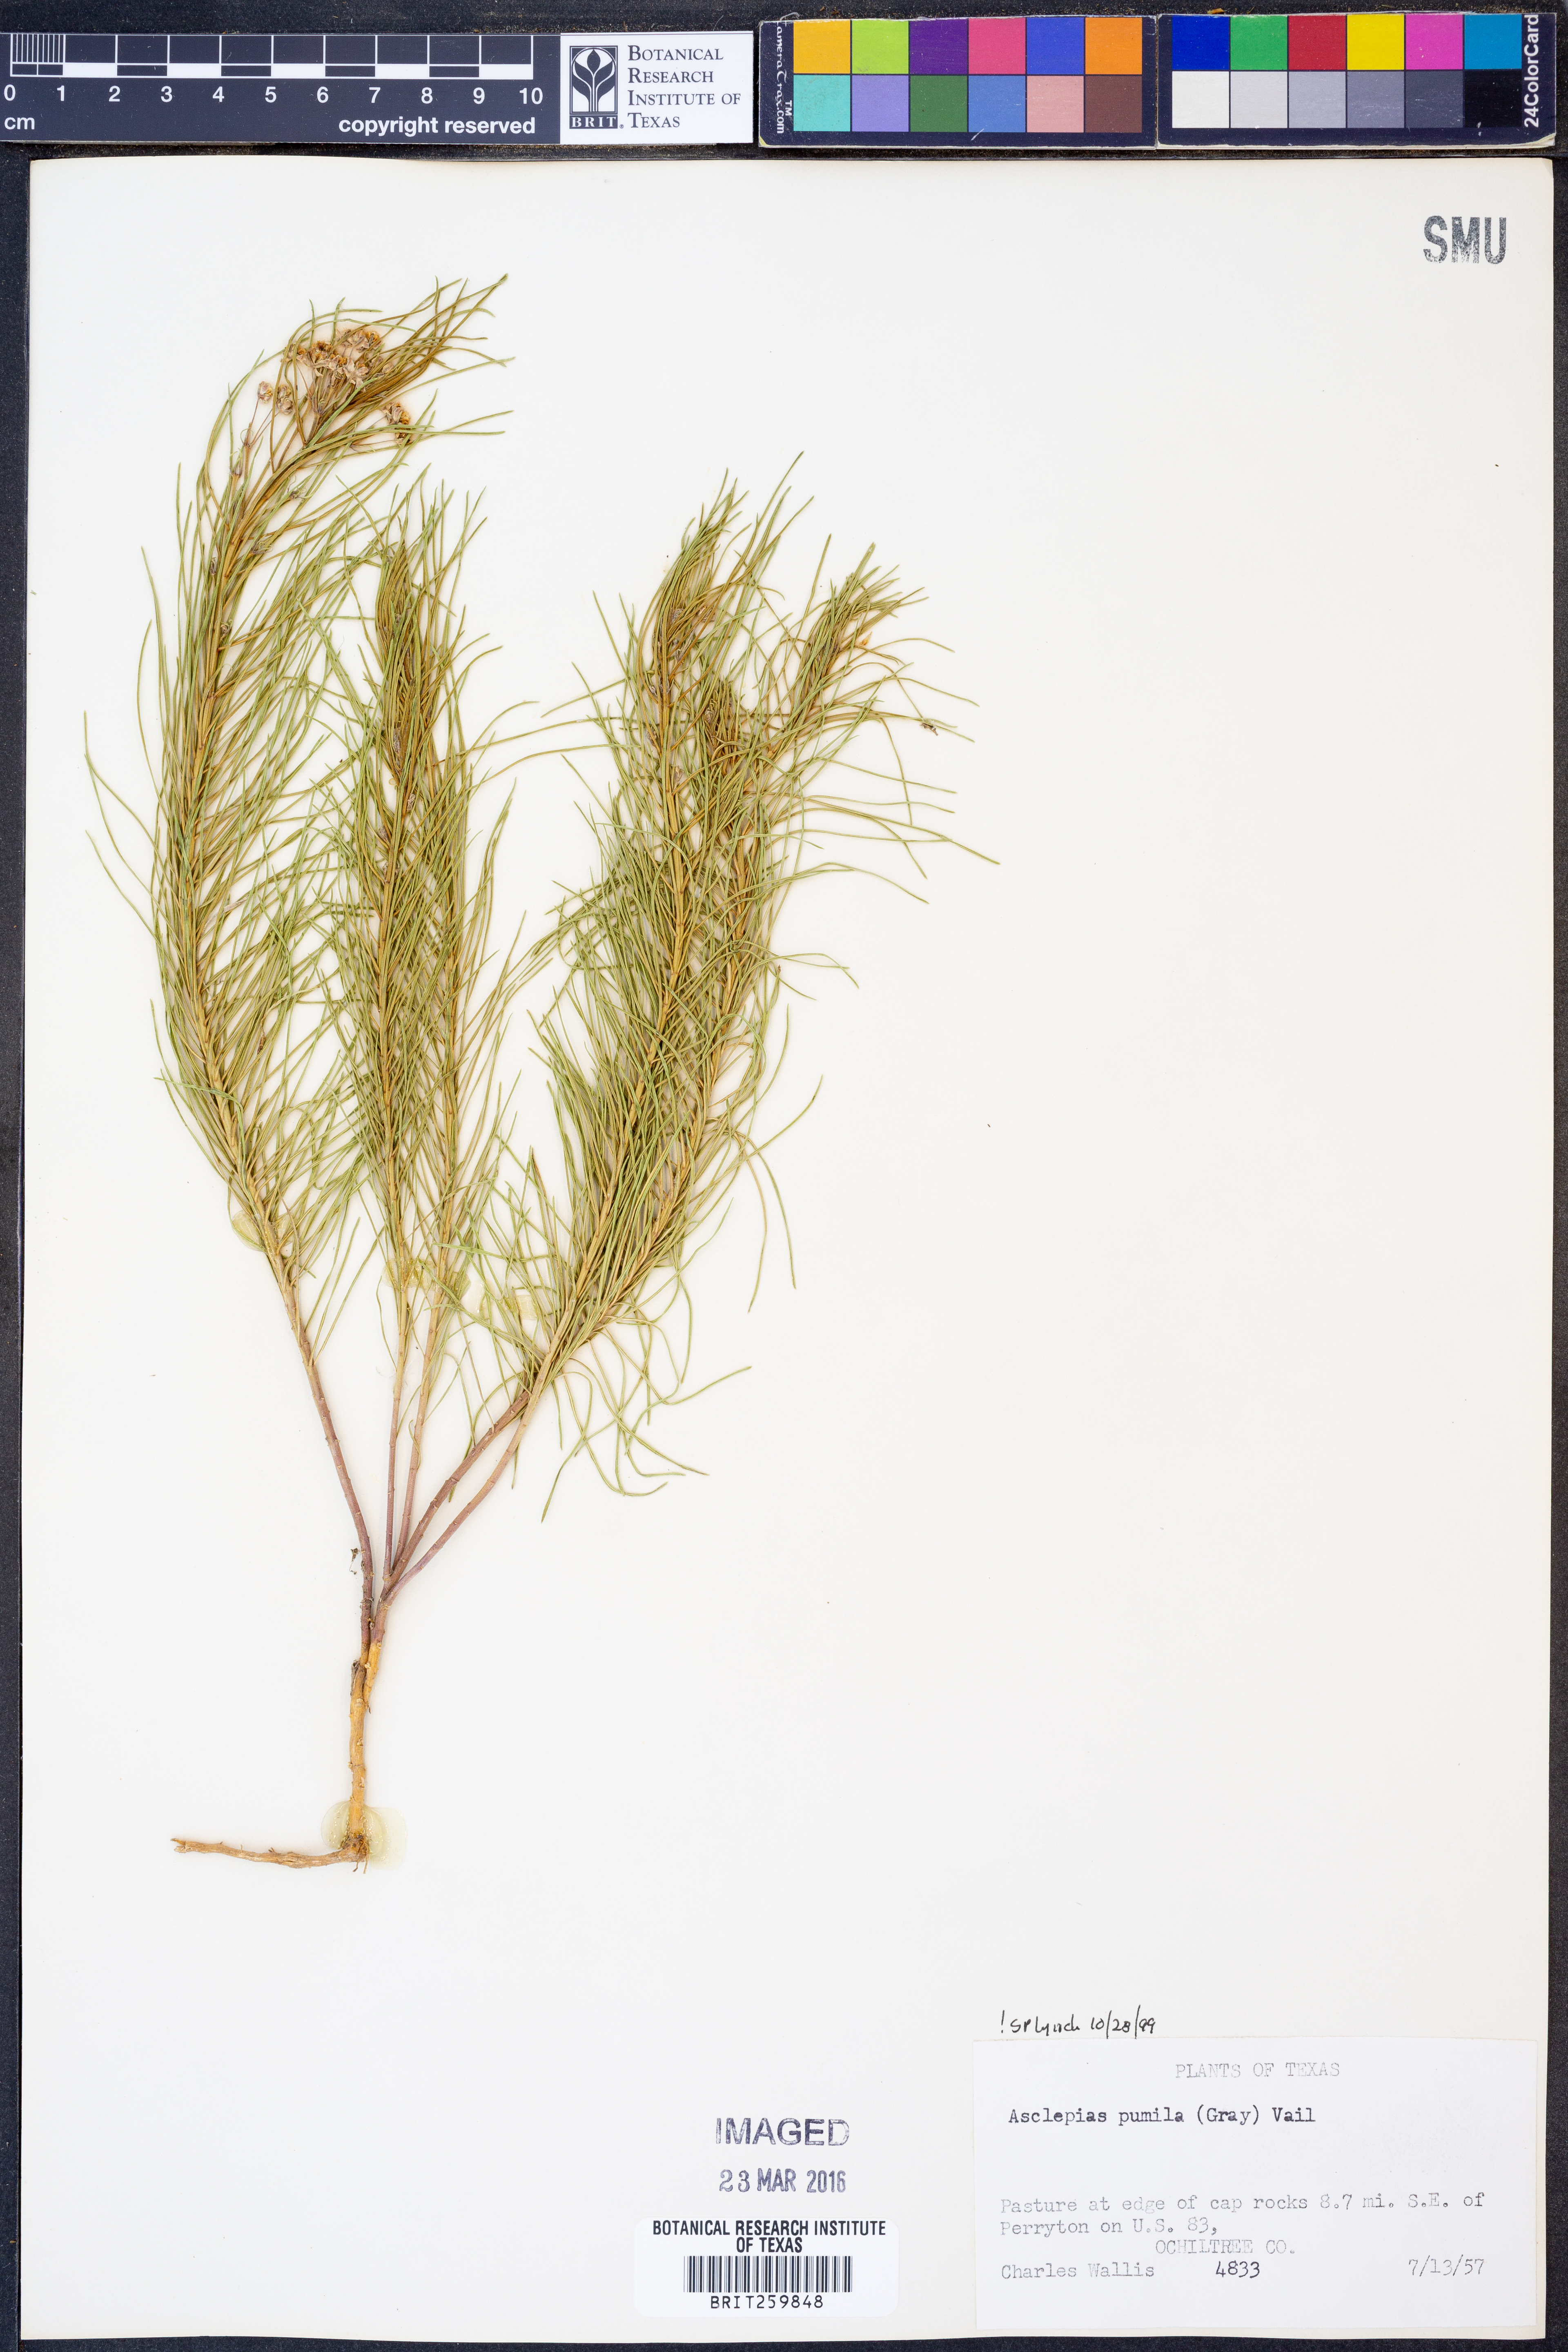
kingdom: Plantae
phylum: Tracheophyta
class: Magnoliopsida
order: Gentianales
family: Apocynaceae
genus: Asclepias
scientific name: Asclepias pumila
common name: Dwarf milkweed
